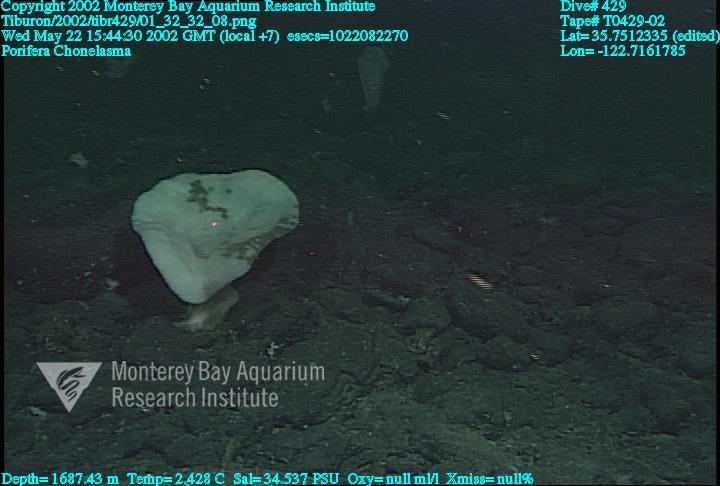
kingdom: Animalia
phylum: Porifera
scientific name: Porifera
